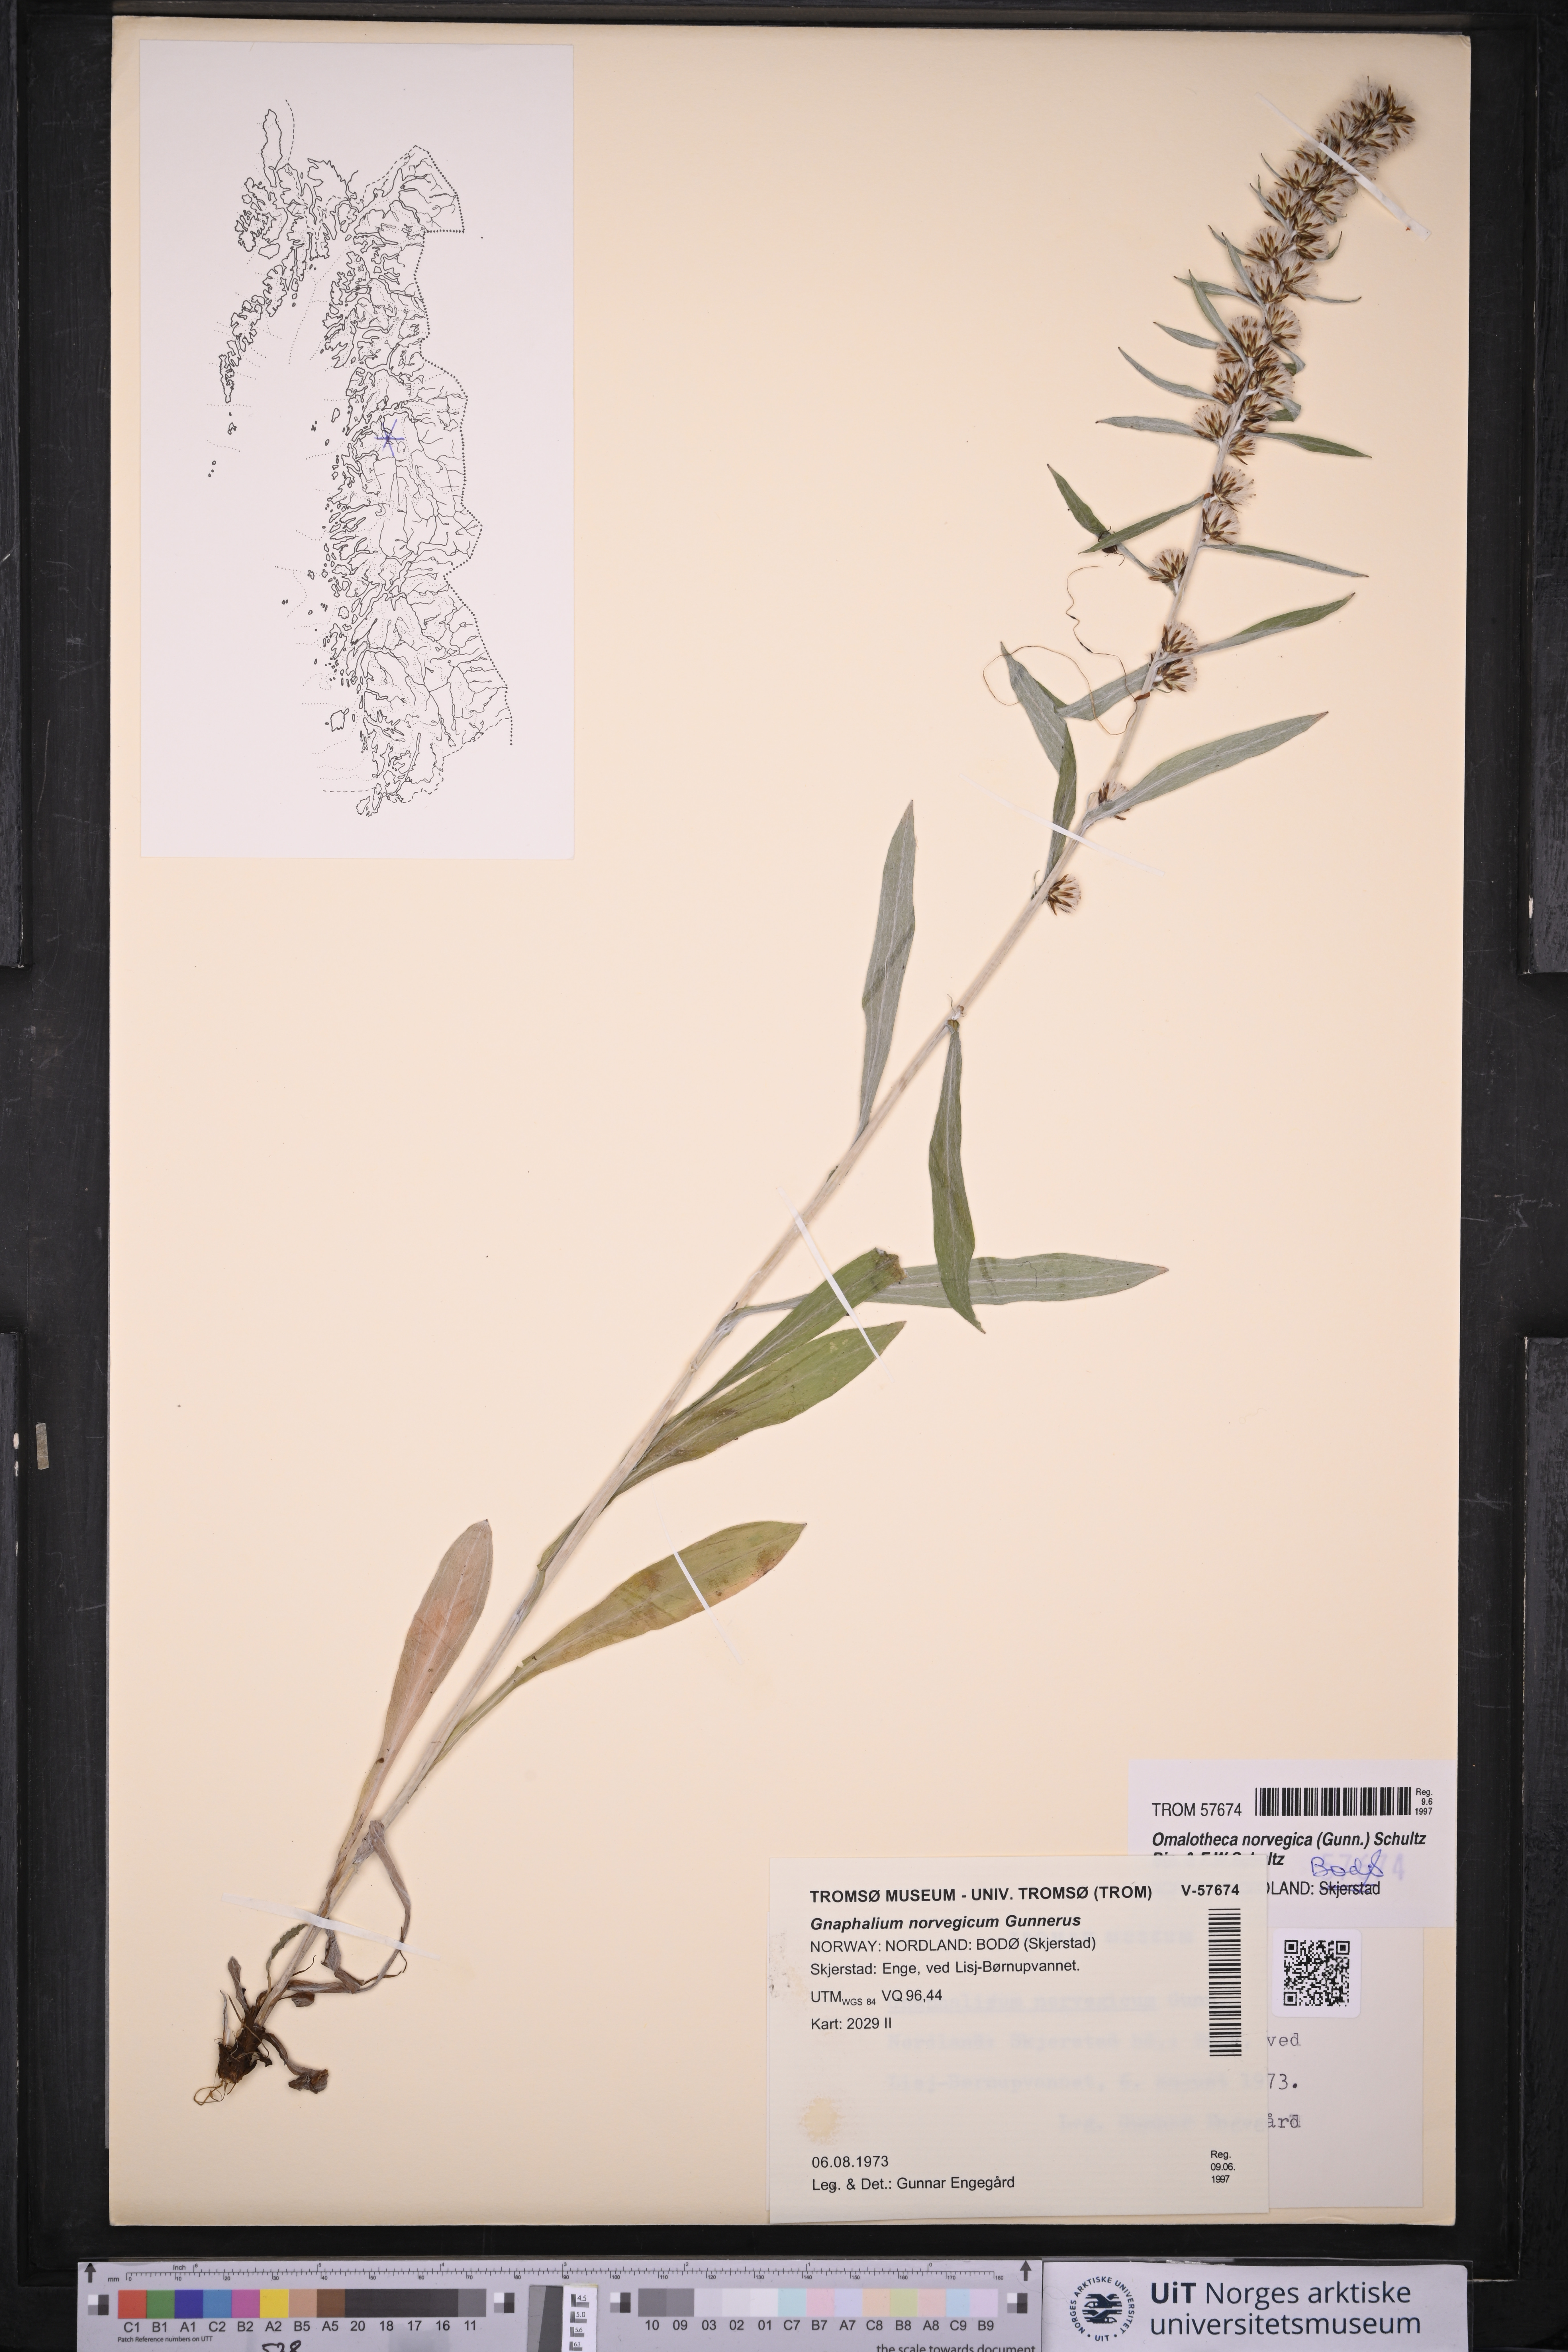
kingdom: Plantae
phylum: Tracheophyta
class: Magnoliopsida
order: Asterales
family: Asteraceae
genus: Omalotheca
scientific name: Omalotheca norvegica
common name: Norwegian arctic-cudweed
